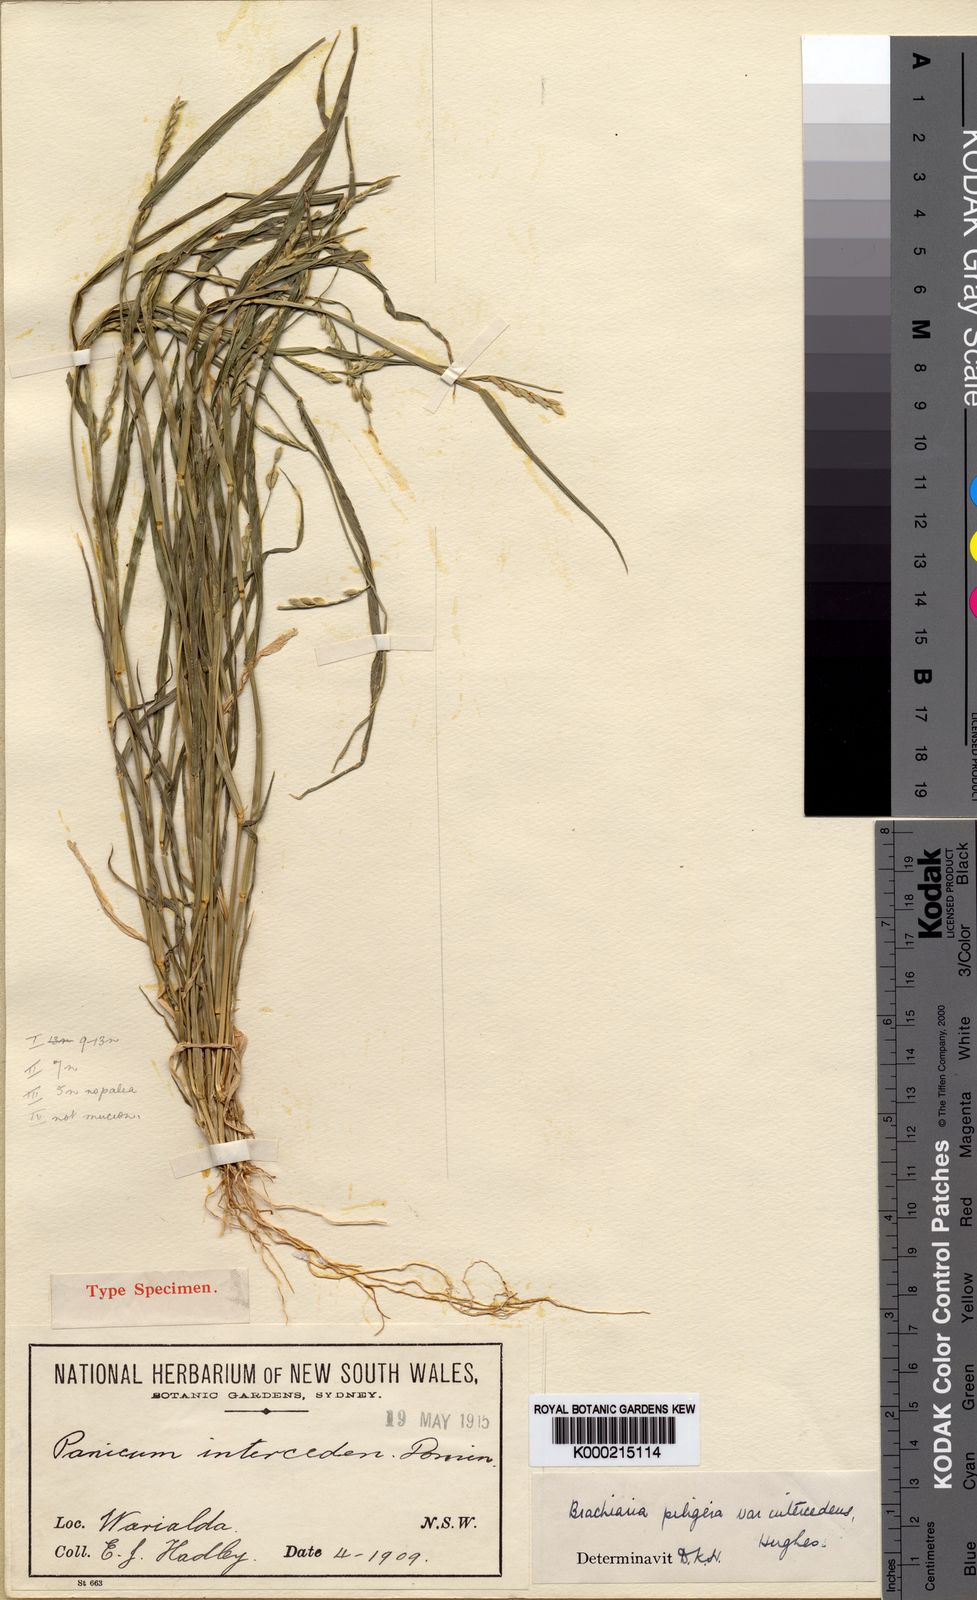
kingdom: Plantae
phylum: Tracheophyta
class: Liliopsida
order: Poales
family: Poaceae
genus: Urochloa
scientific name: Urochloa piligera
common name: Wattle signalgrass
